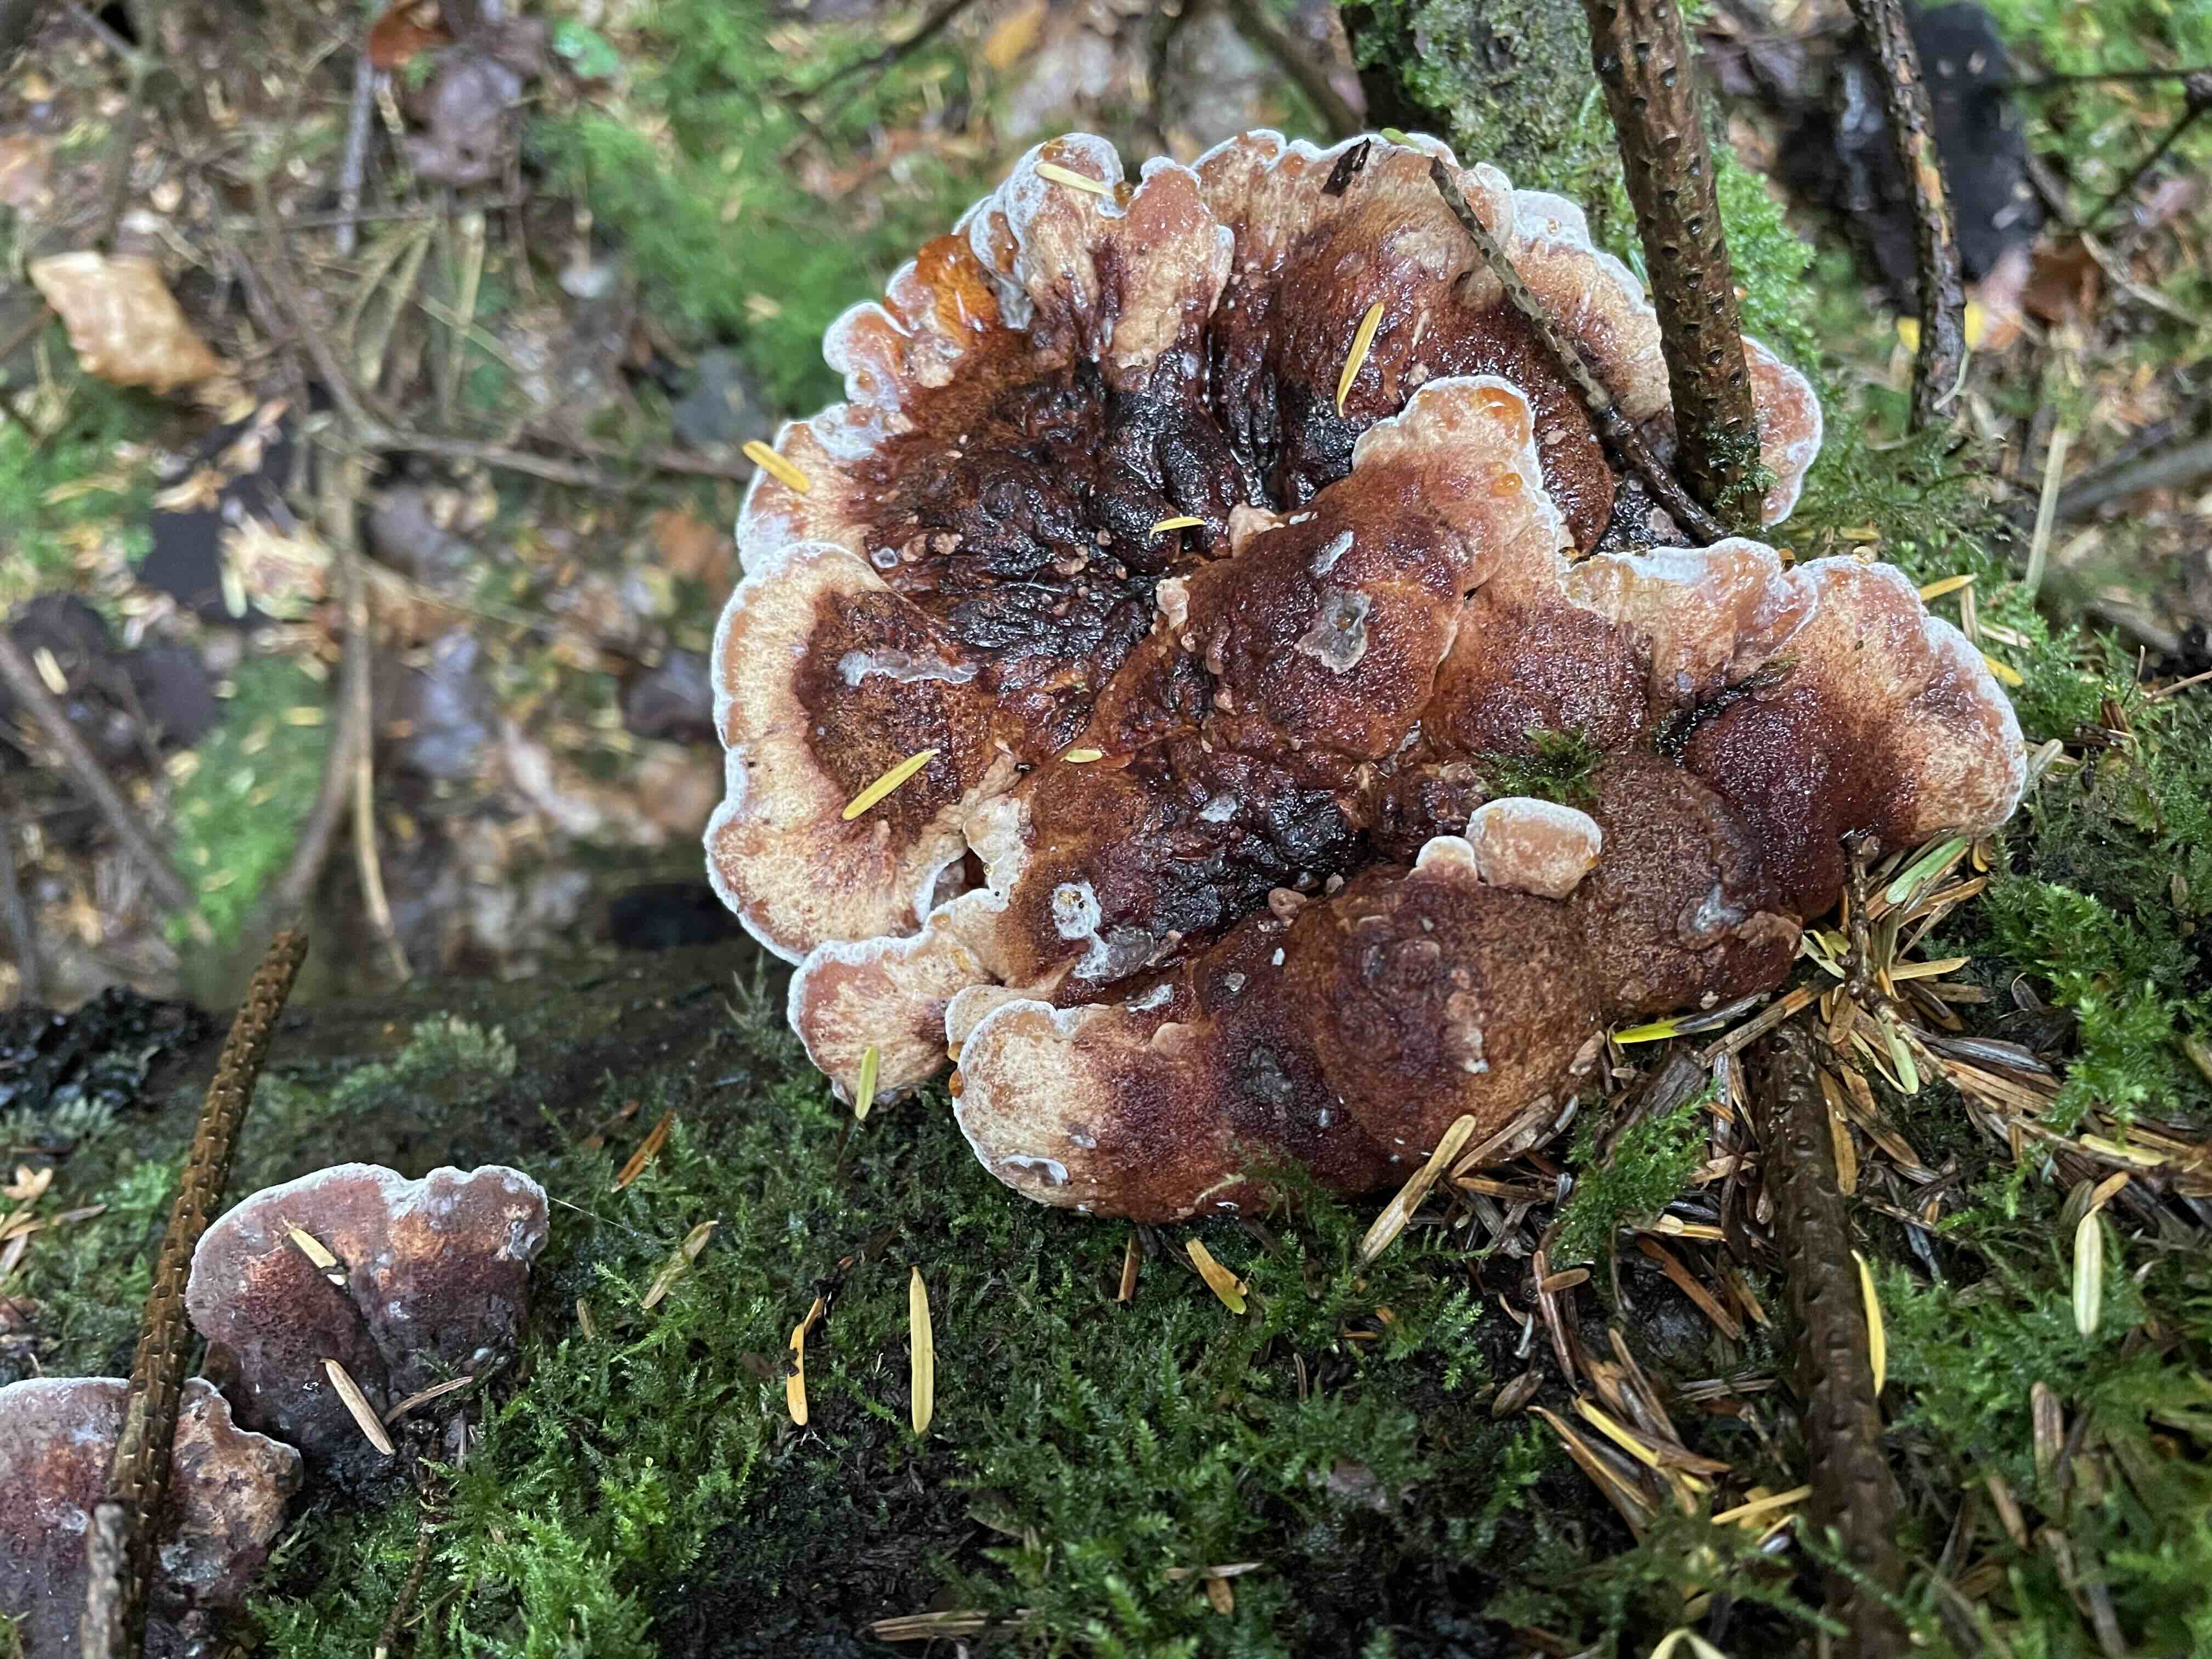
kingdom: Fungi
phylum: Basidiomycota
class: Agaricomycetes
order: Polyporales
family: Ischnodermataceae
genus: Ischnoderma
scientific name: Ischnoderma benzoinum
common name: gran-tjæreporesvamp
